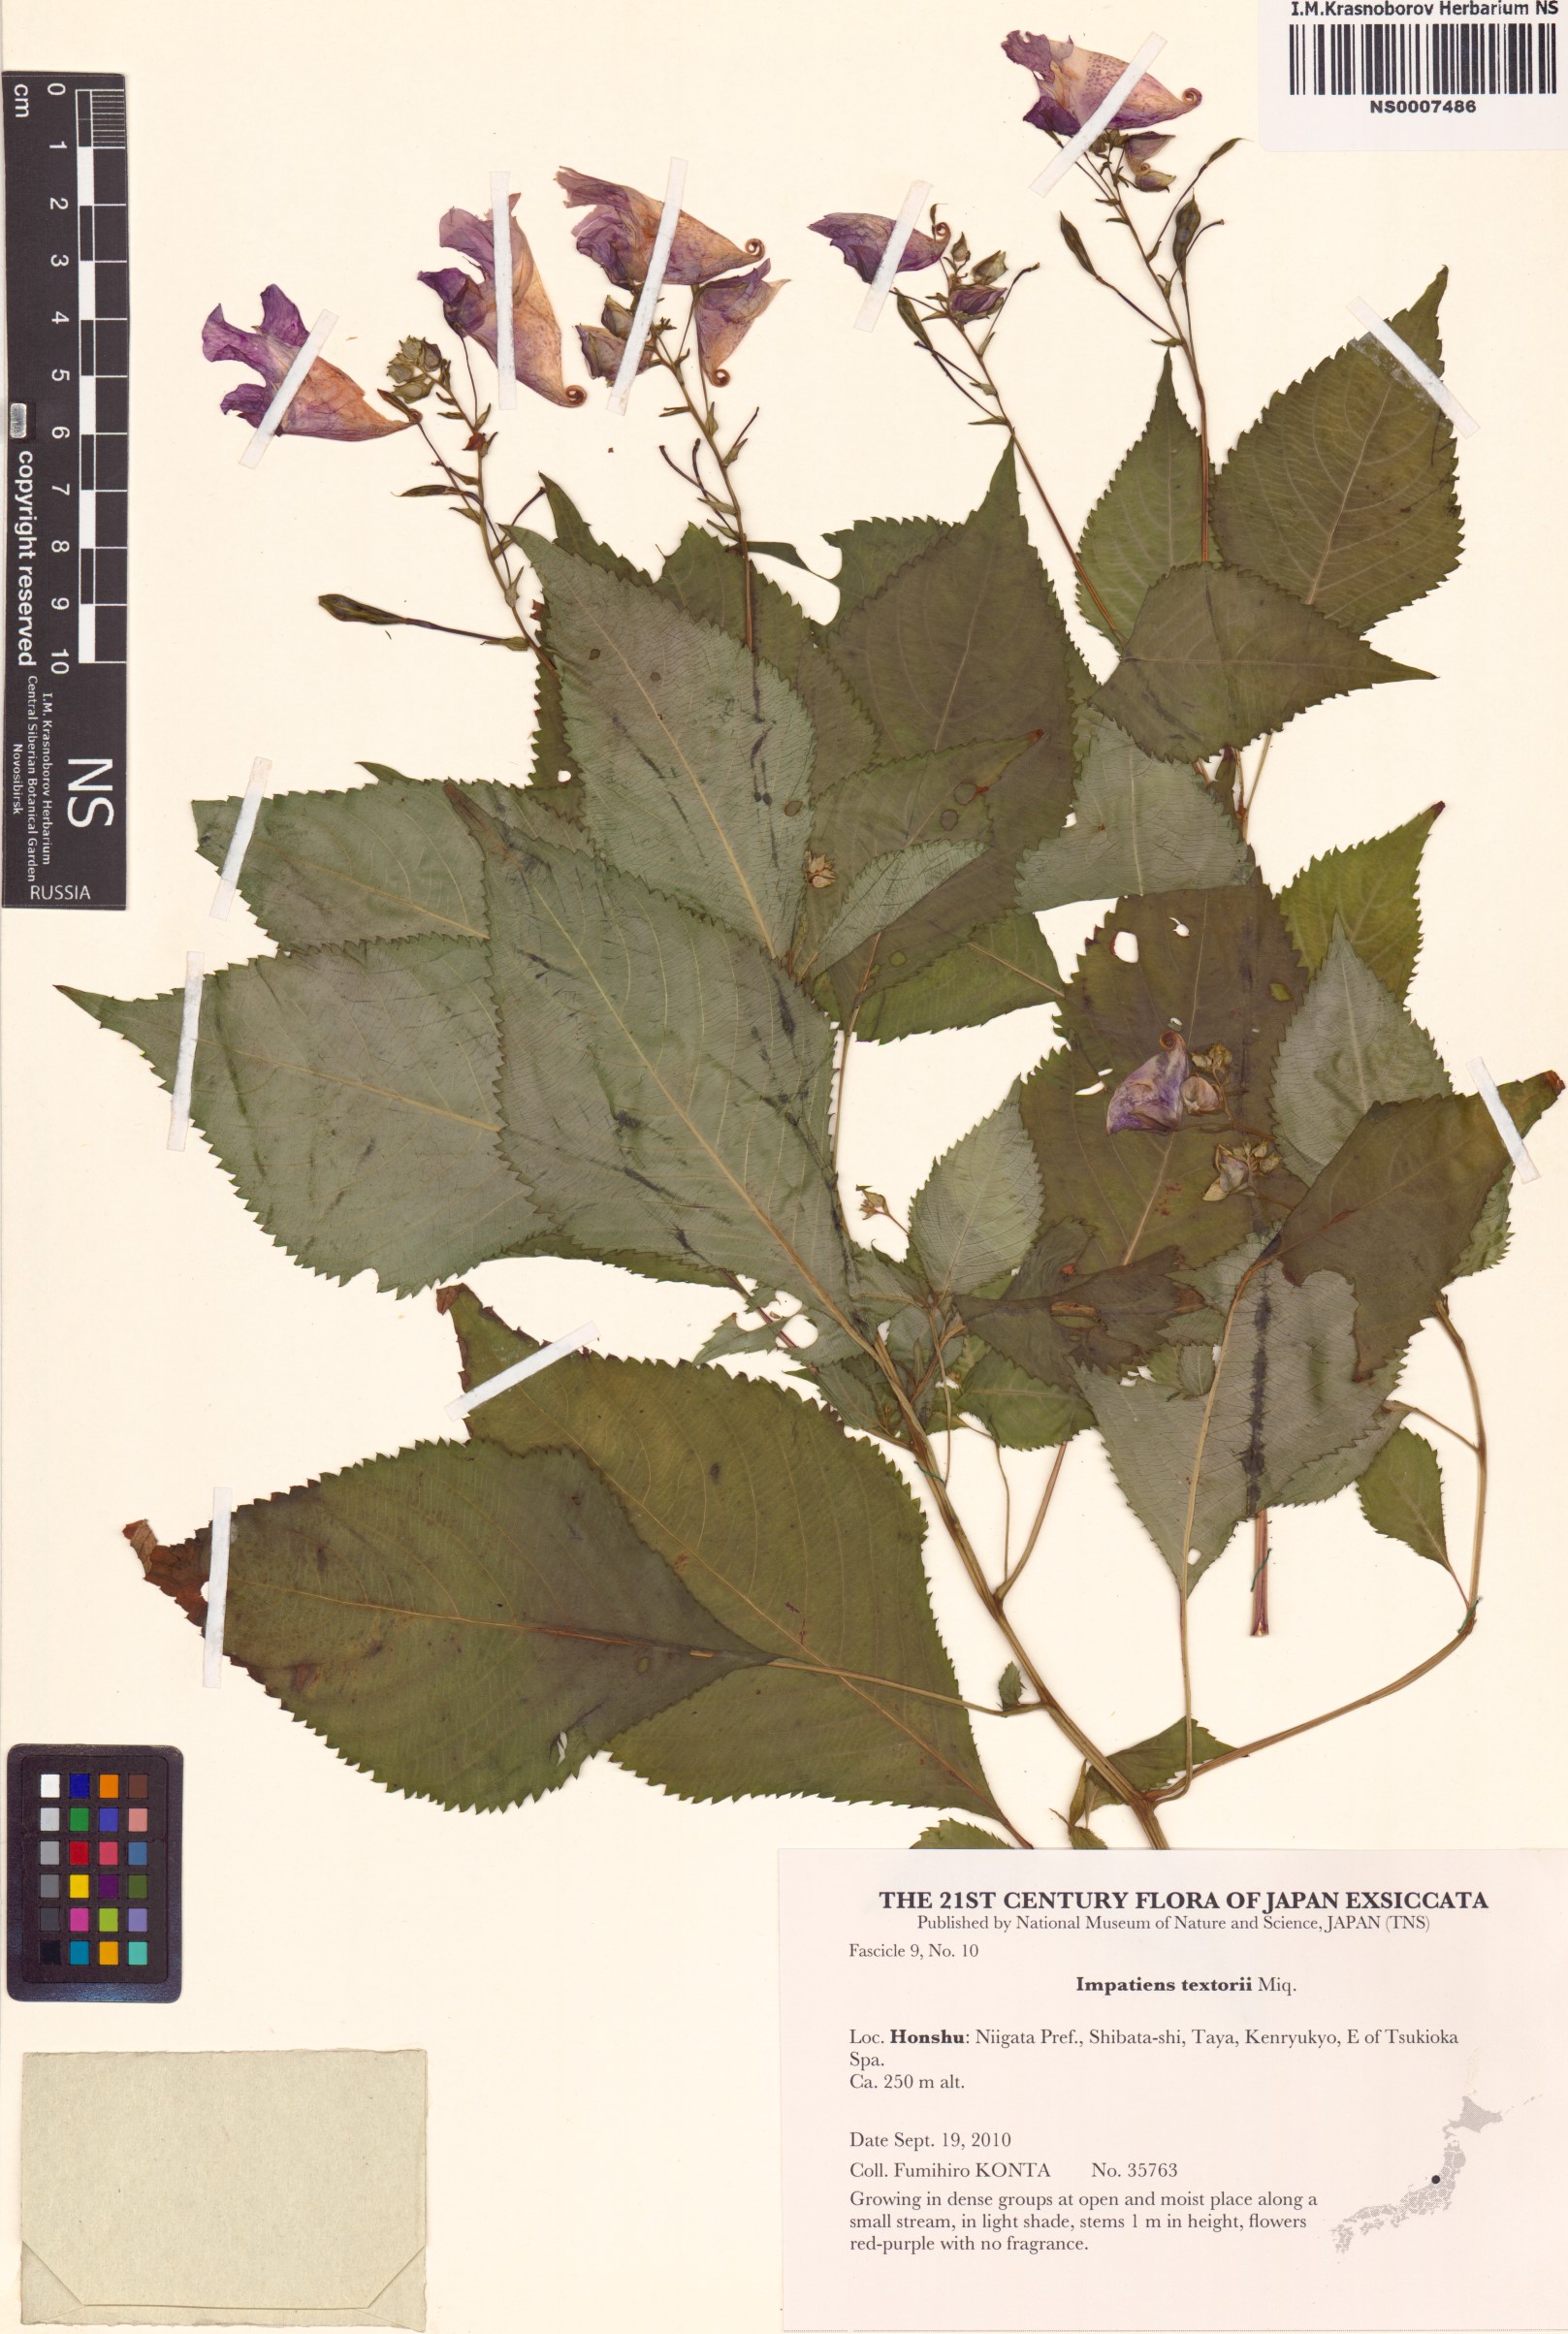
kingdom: Plantae
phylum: Tracheophyta
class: Magnoliopsida
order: Ericales
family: Balsaminaceae
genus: Impatiens
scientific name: Impatiens textorii
